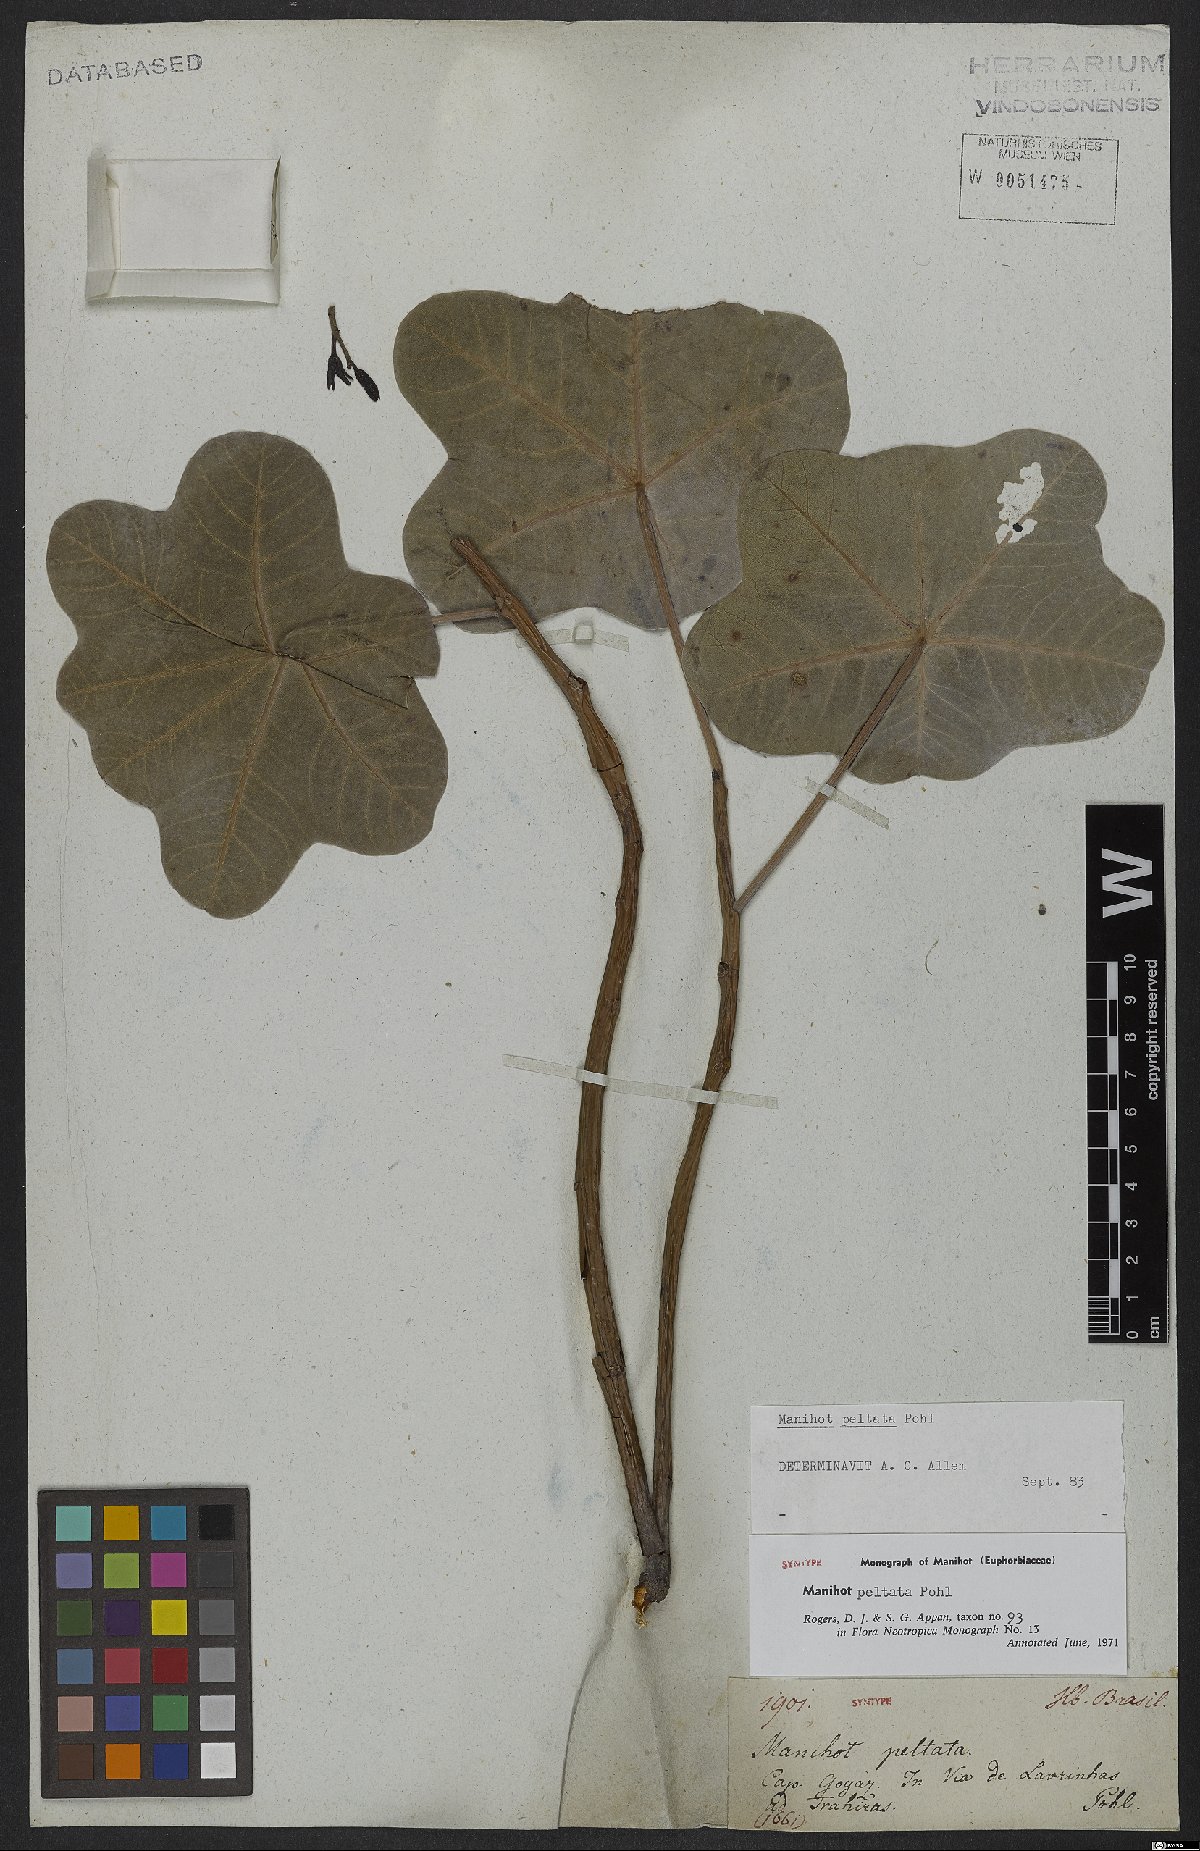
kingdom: Plantae
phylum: Tracheophyta
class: Magnoliopsida
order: Malpighiales
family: Euphorbiaceae
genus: Manihot
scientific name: Manihot peltata
